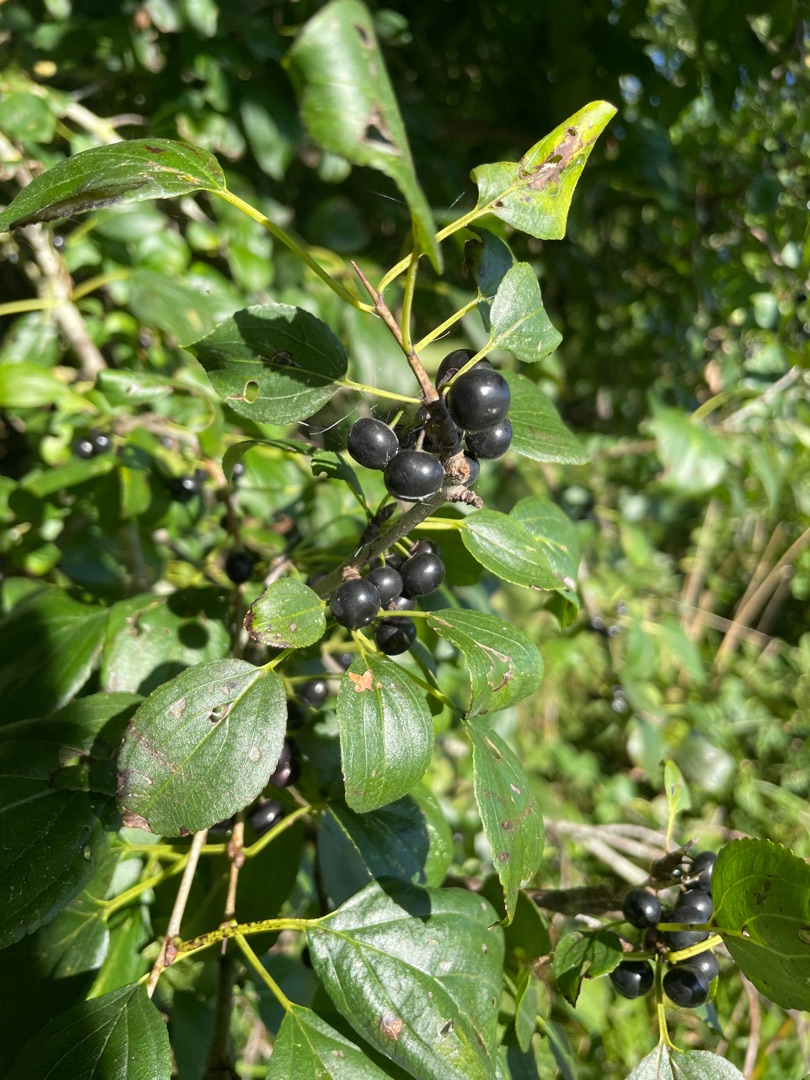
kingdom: Plantae
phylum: Tracheophyta
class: Magnoliopsida
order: Rosales
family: Rhamnaceae
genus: Rhamnus
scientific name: Rhamnus cathartica
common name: Vrietorn
